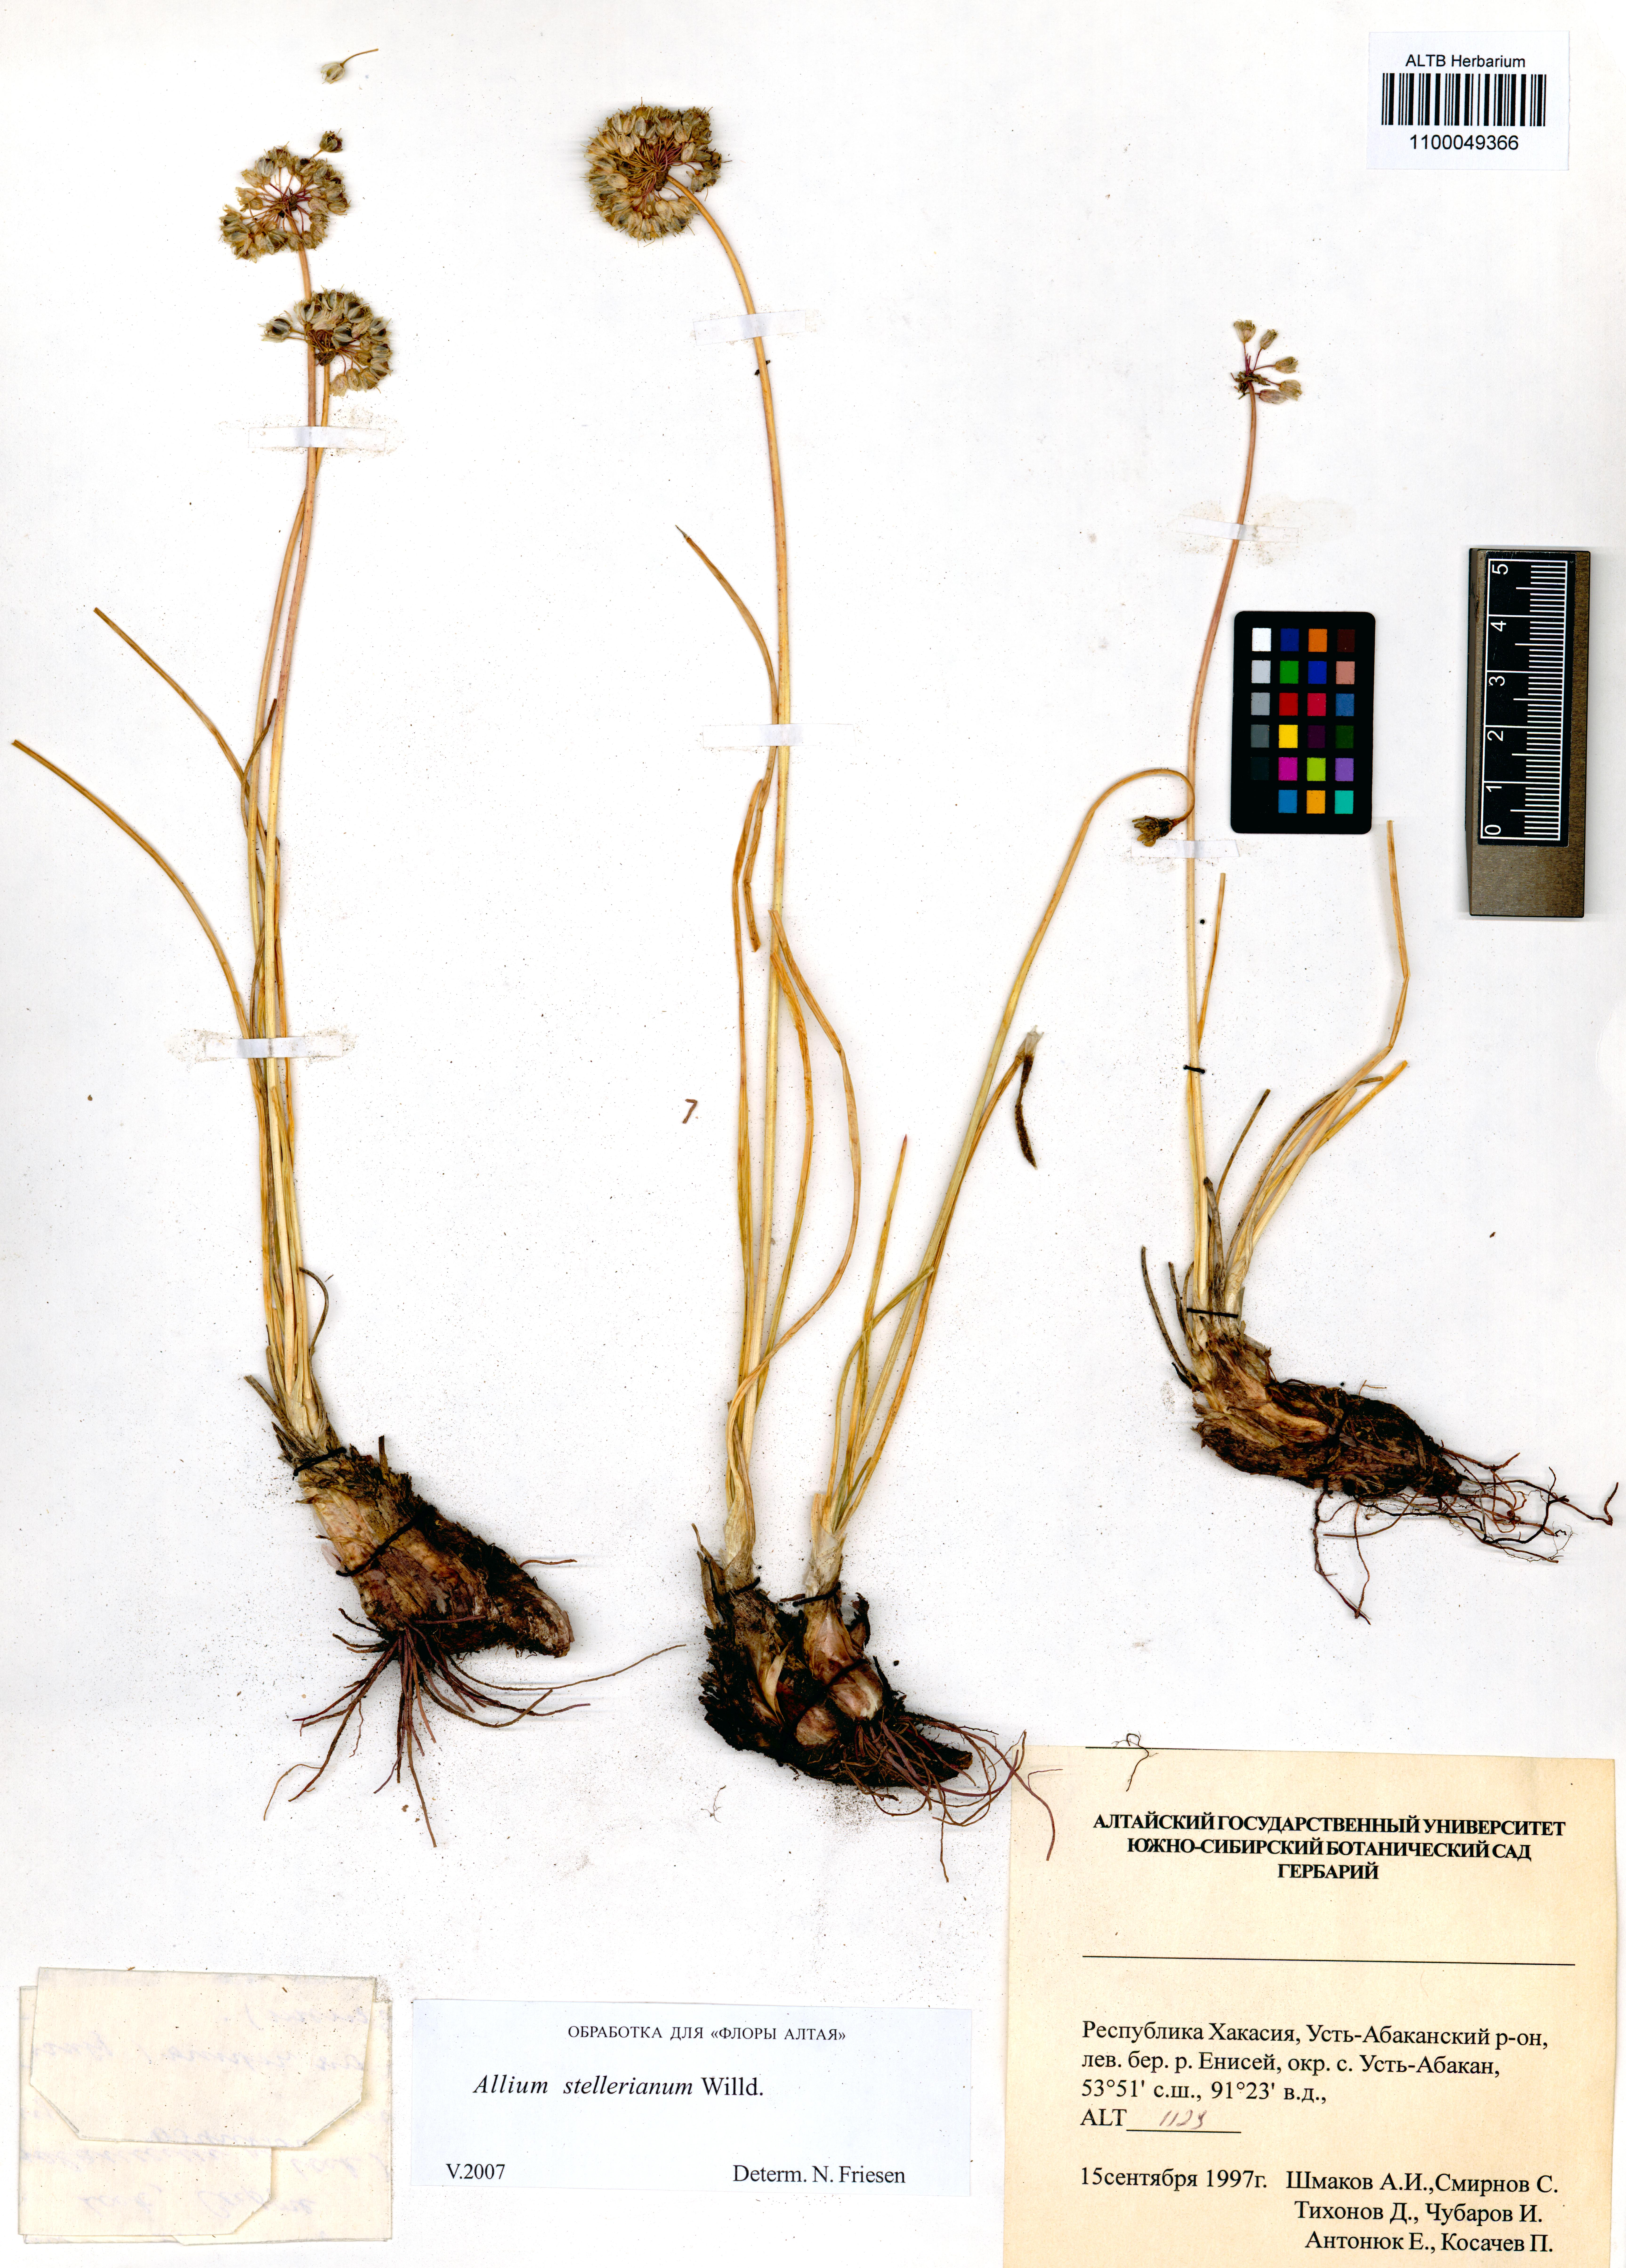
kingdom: Plantae
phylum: Tracheophyta
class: Liliopsida
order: Asparagales
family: Amaryllidaceae
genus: Allium
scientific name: Allium stellerianum
